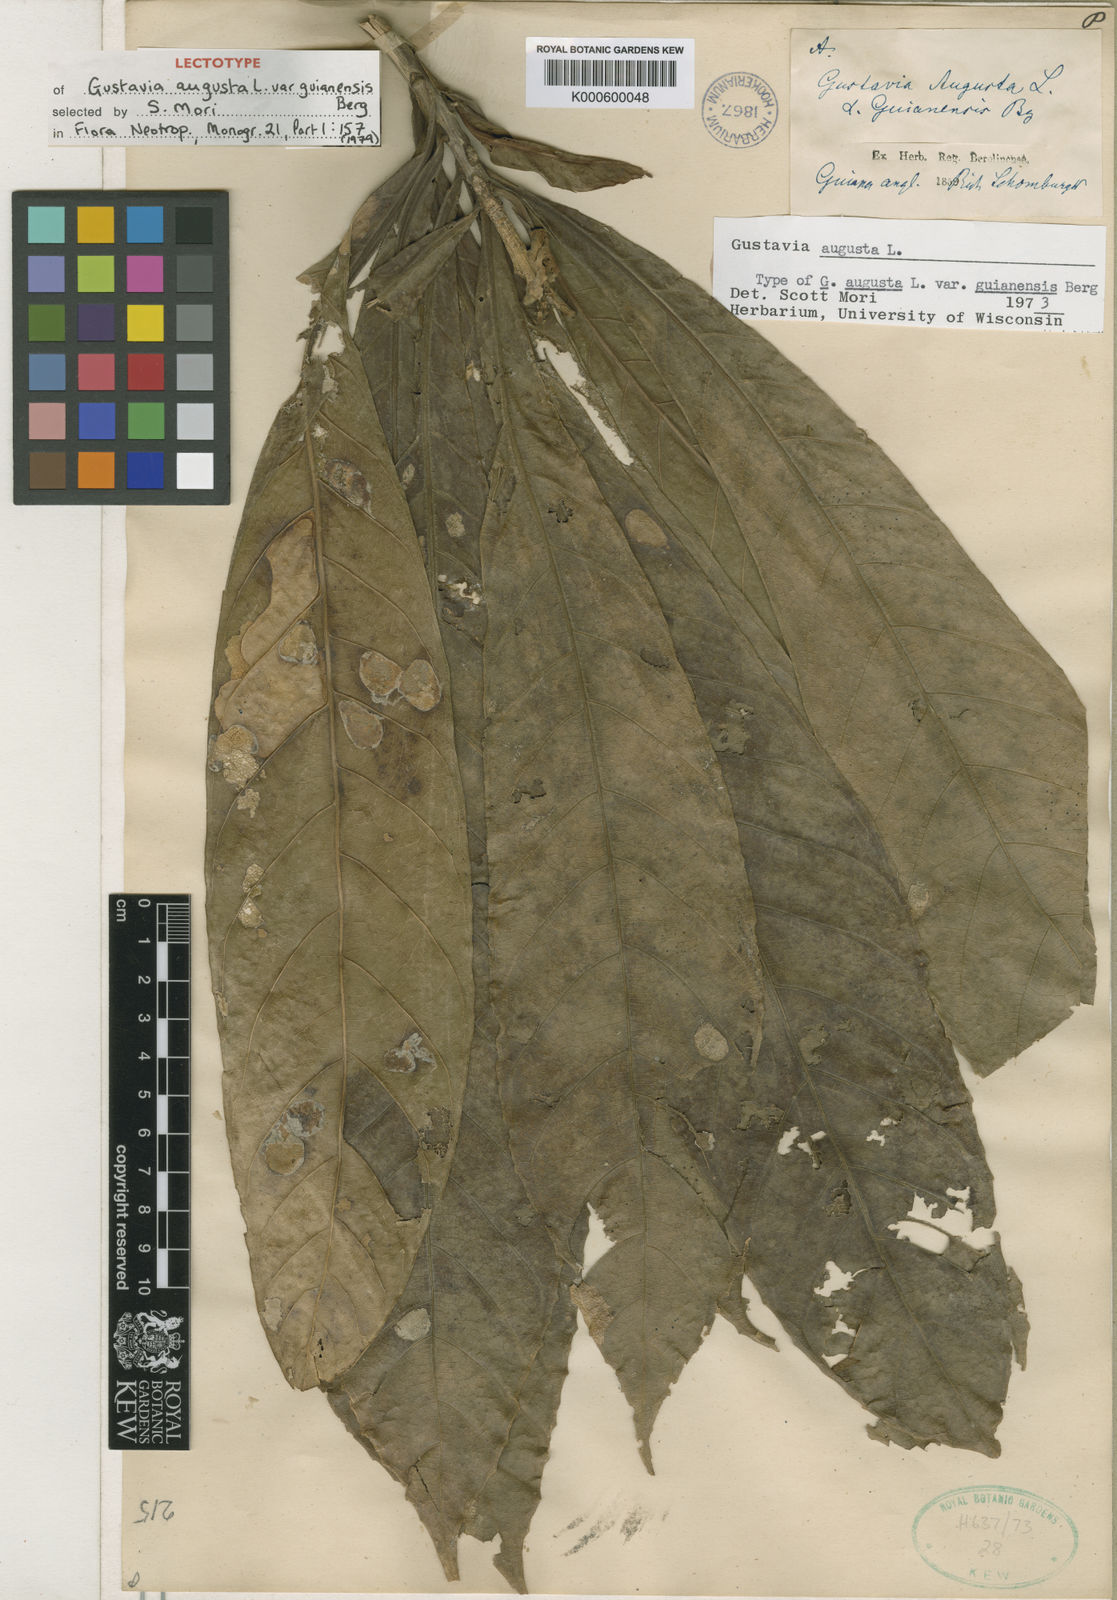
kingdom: Plantae
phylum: Tracheophyta
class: Magnoliopsida
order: Ericales
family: Lecythidaceae
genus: Gustavia
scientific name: Gustavia augusta
